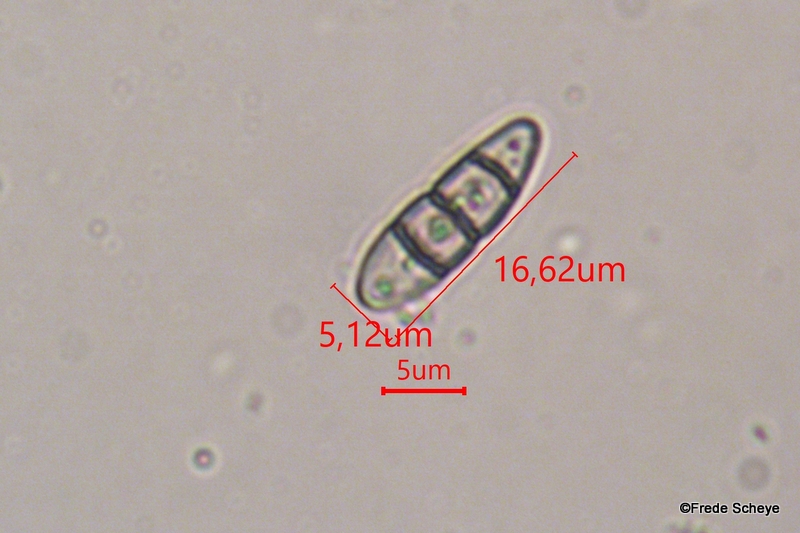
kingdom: Fungi
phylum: Ascomycota
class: Dothideomycetes
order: Pleosporales
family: Melanommataceae
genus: Melanomma
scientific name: Melanomma pulvis-pyrius
